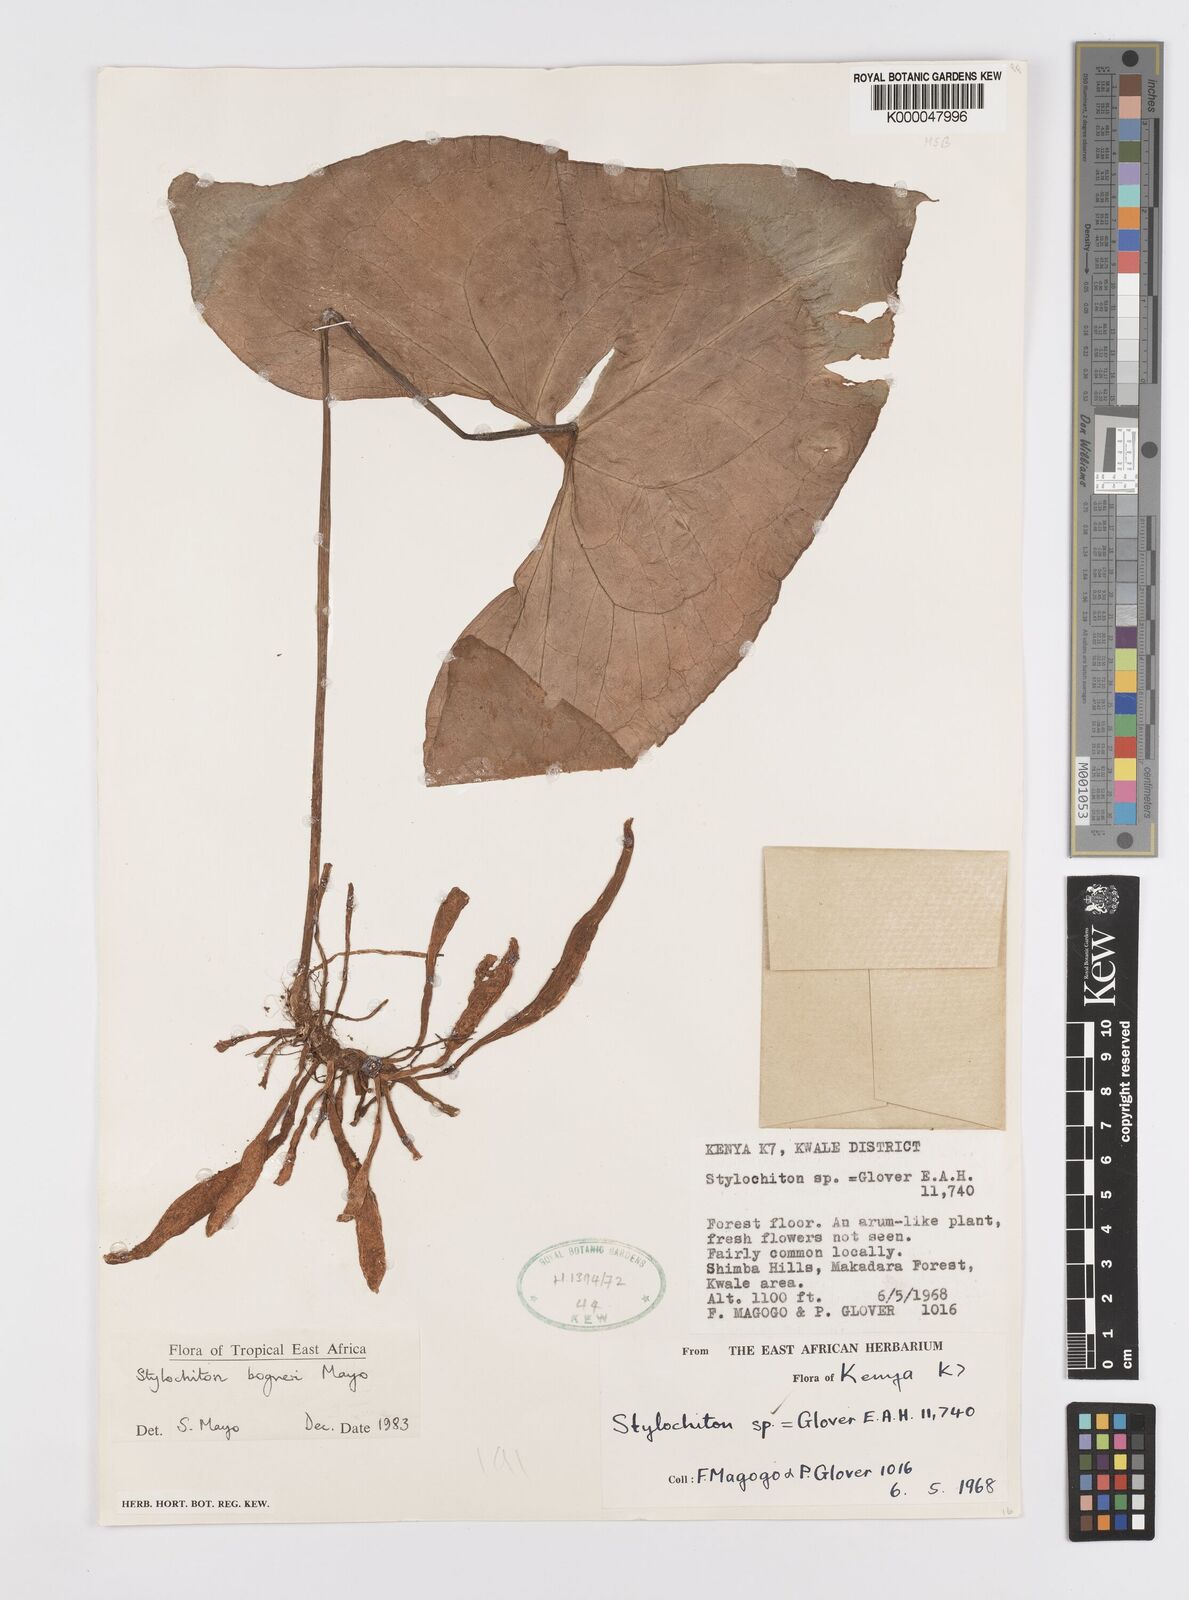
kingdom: Plantae
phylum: Tracheophyta
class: Liliopsida
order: Alismatales
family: Araceae
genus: Stylochaeton
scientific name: Stylochaeton bogneri
